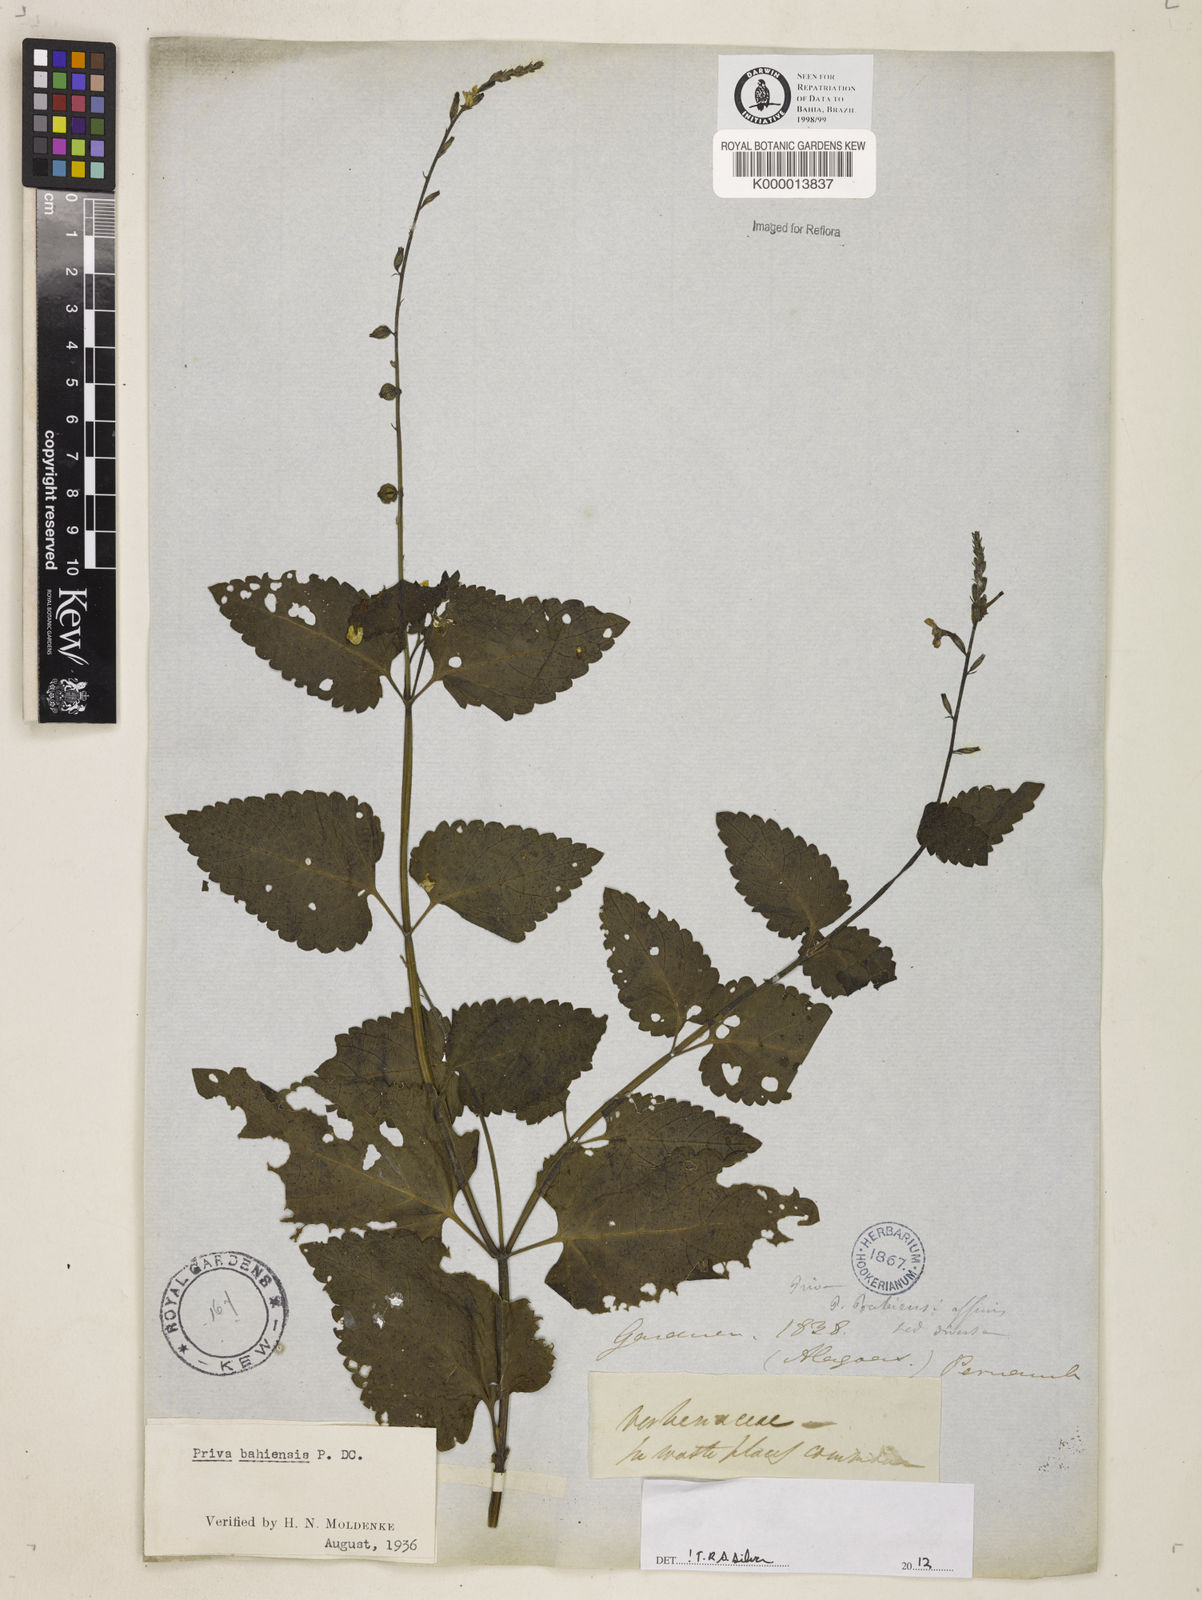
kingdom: Plantae
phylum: Tracheophyta
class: Magnoliopsida
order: Lamiales
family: Verbenaceae
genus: Priva
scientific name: Priva
